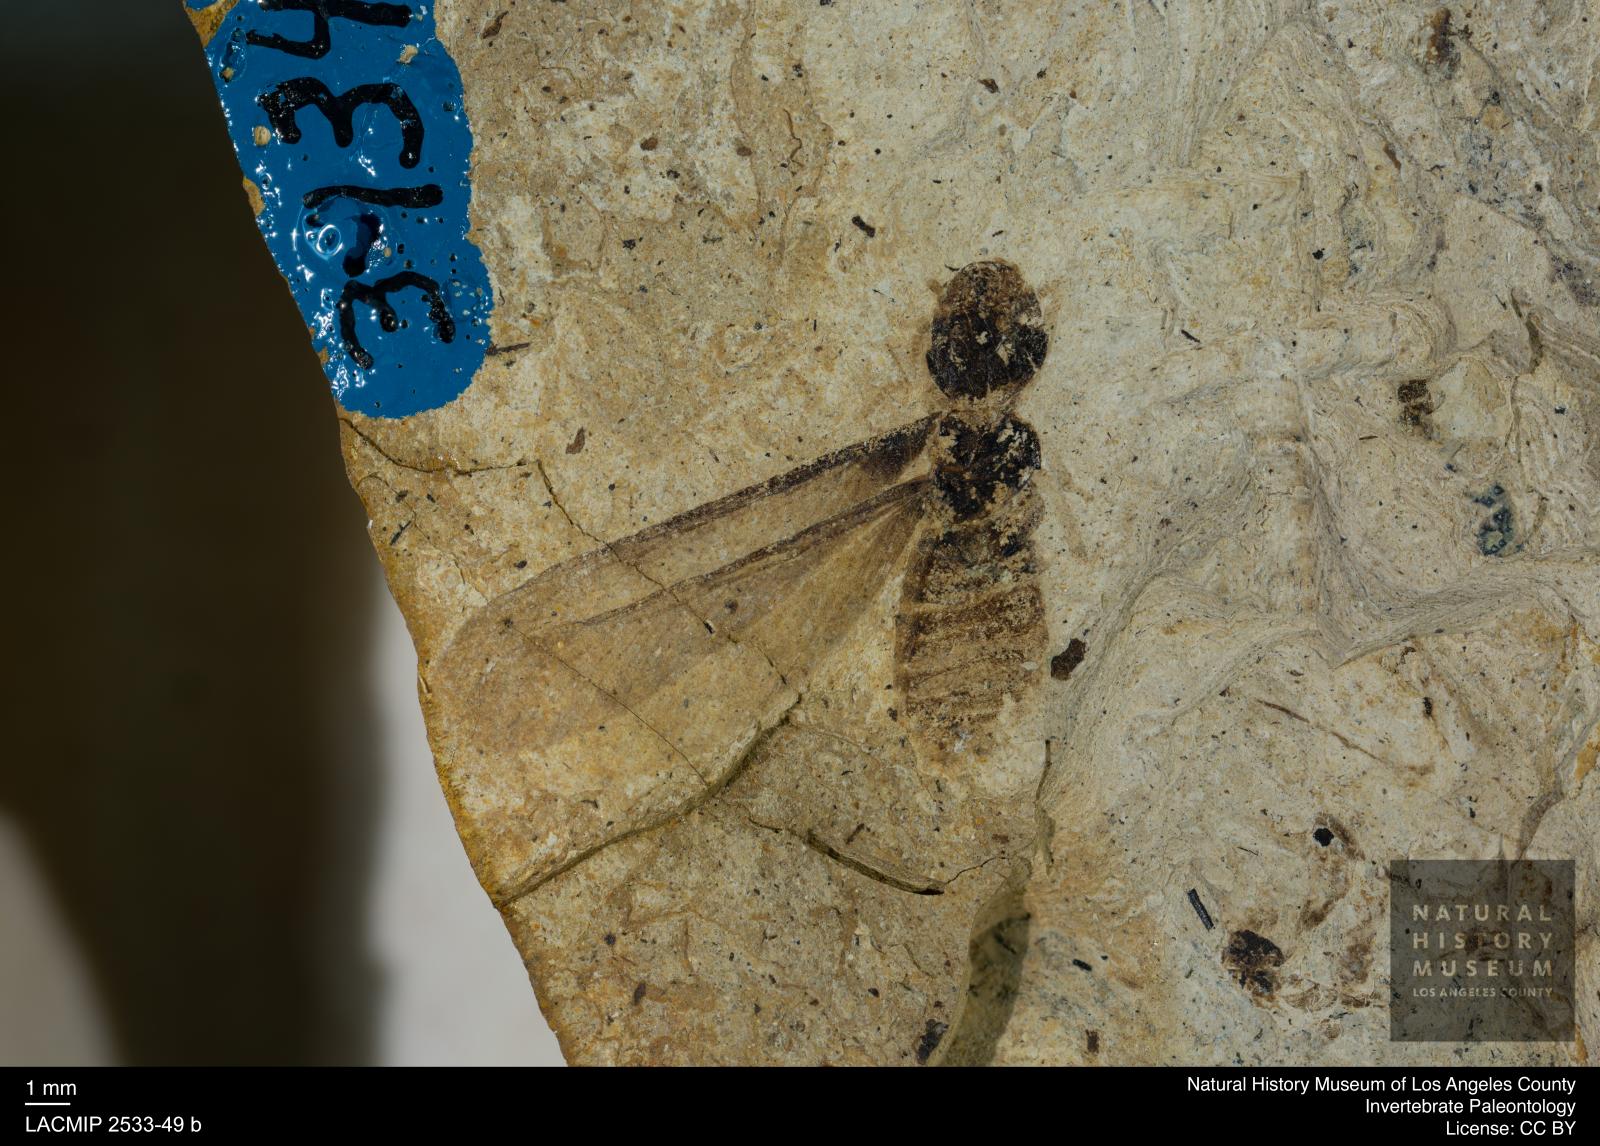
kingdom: Animalia
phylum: Arthropoda
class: Insecta
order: Blattodea
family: Hodotermitidae
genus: Ulmeriella
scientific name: Ulmeriella bauckhorni
